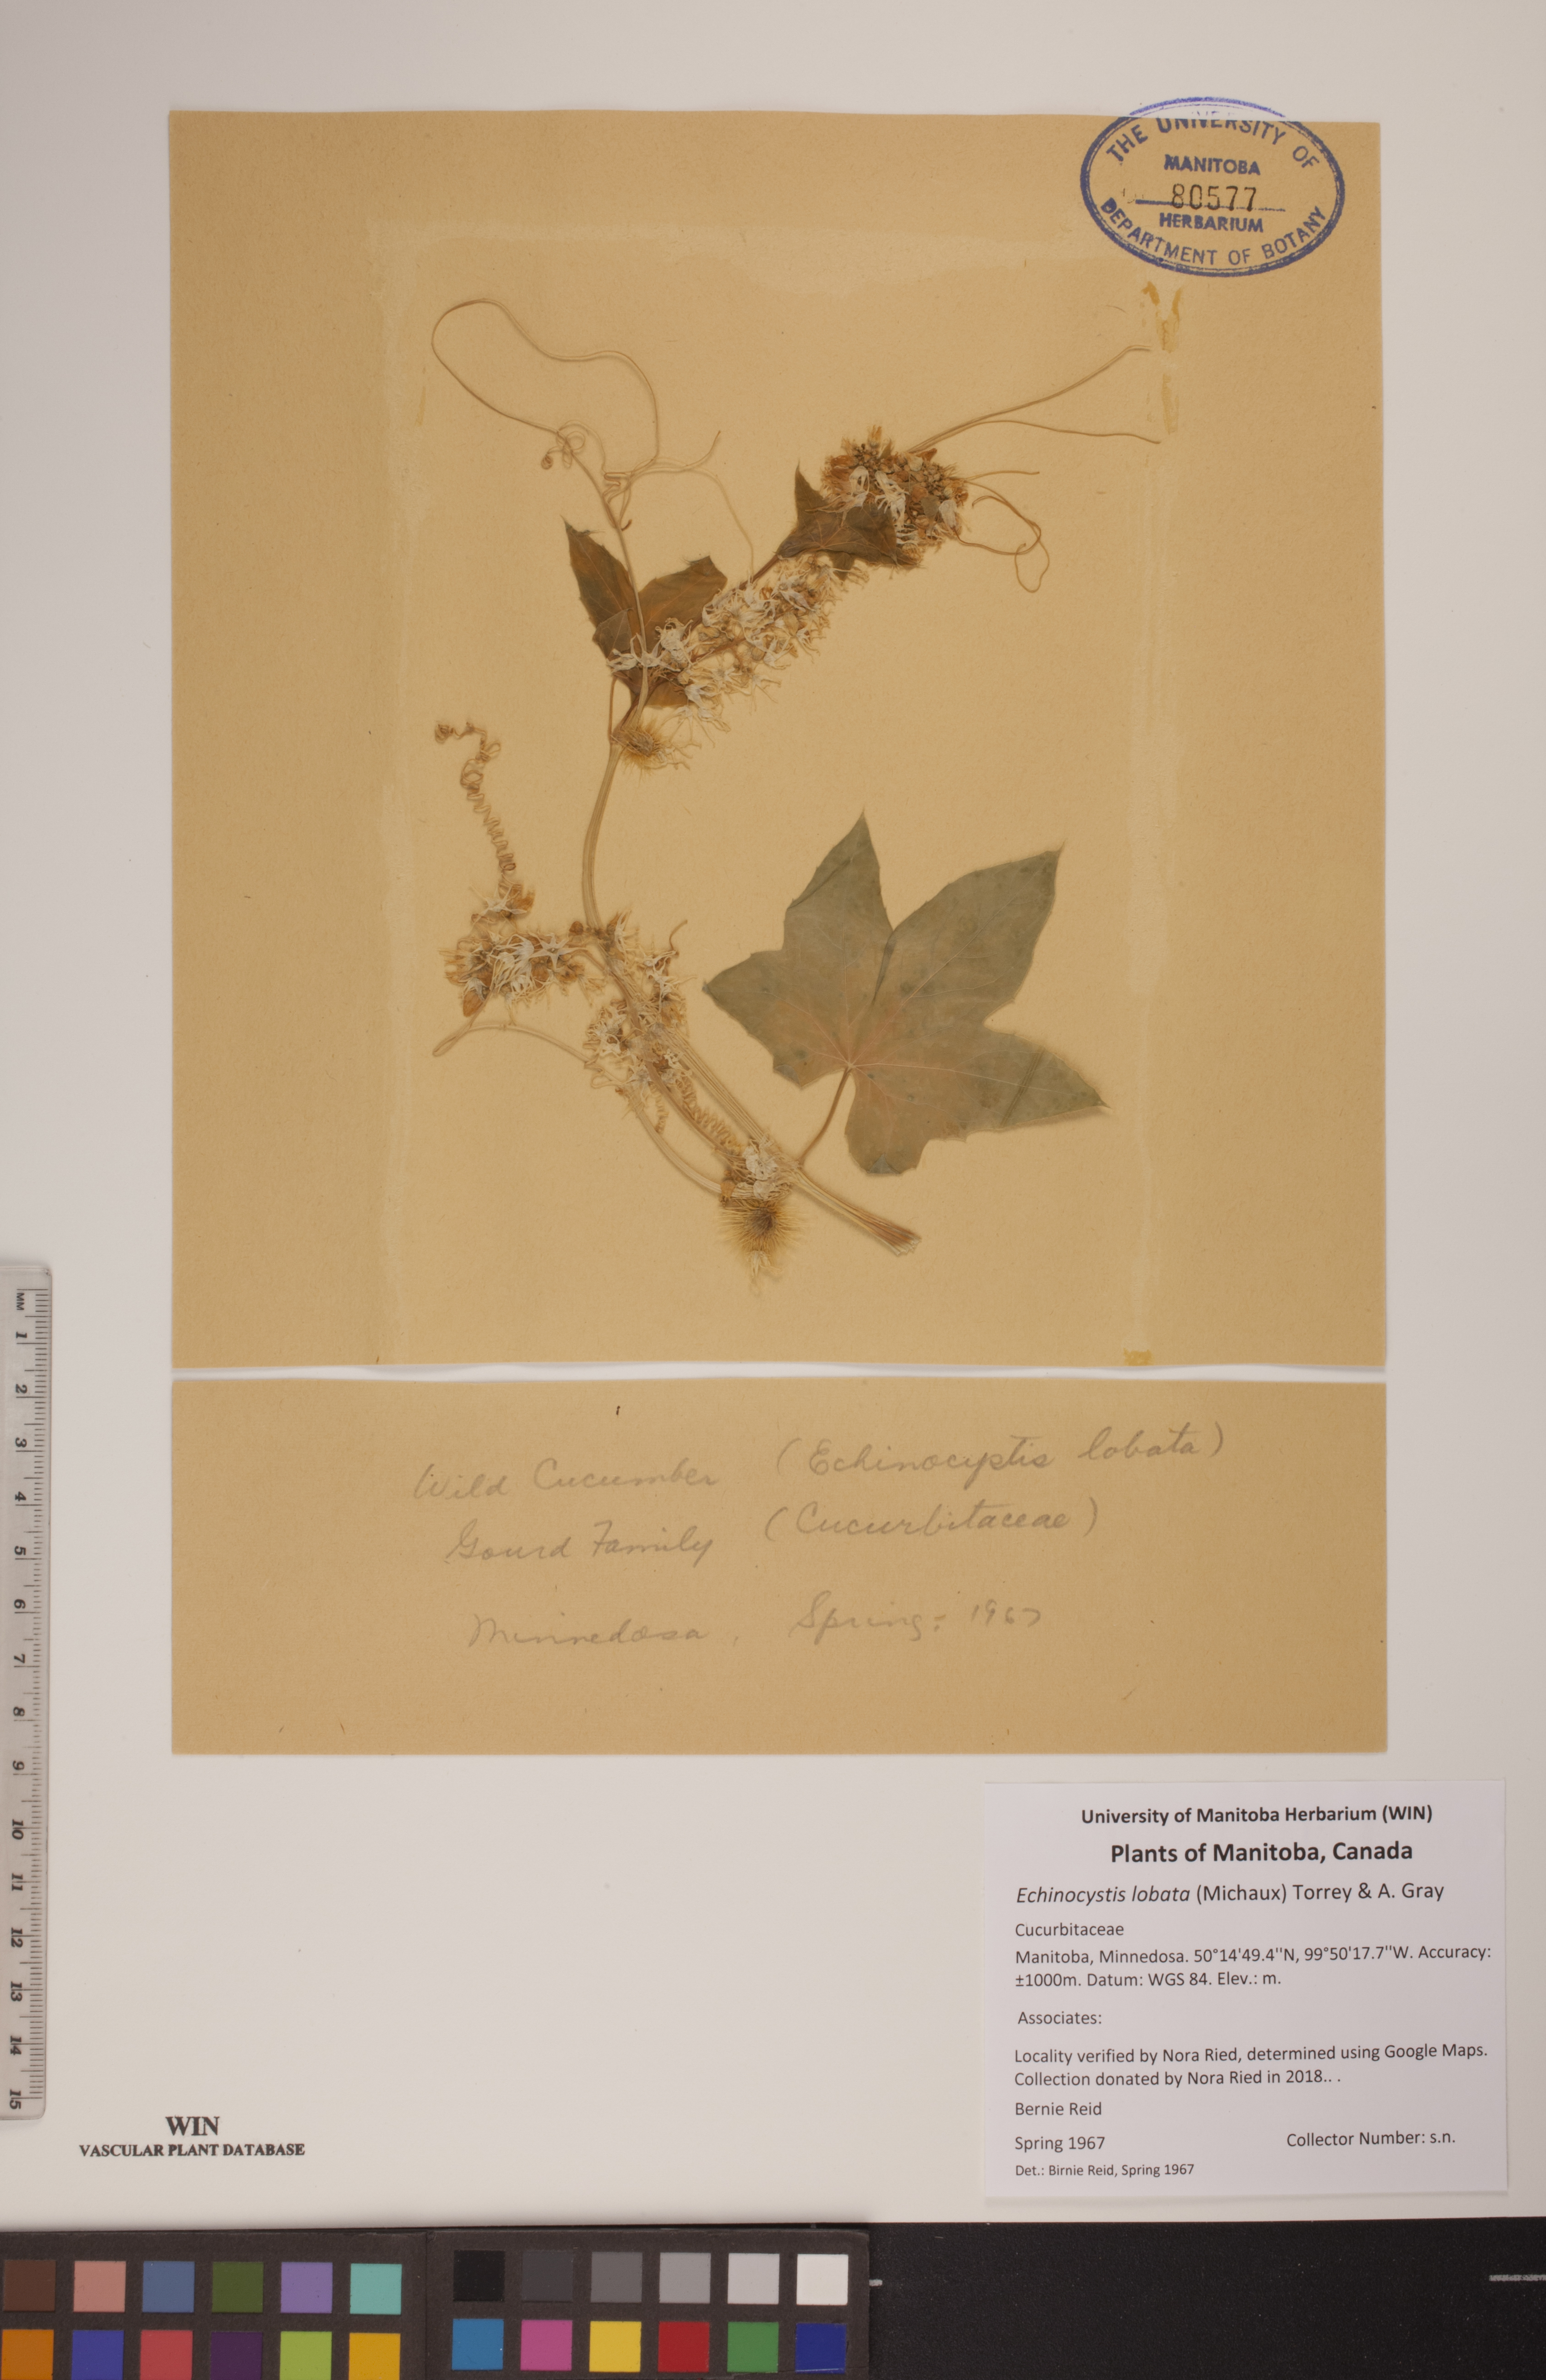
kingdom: Plantae
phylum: Tracheophyta
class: Magnoliopsida
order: Cucurbitales
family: Cucurbitaceae
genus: Echinocystis
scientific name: Echinocystis lobata
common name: Wild cucumber
